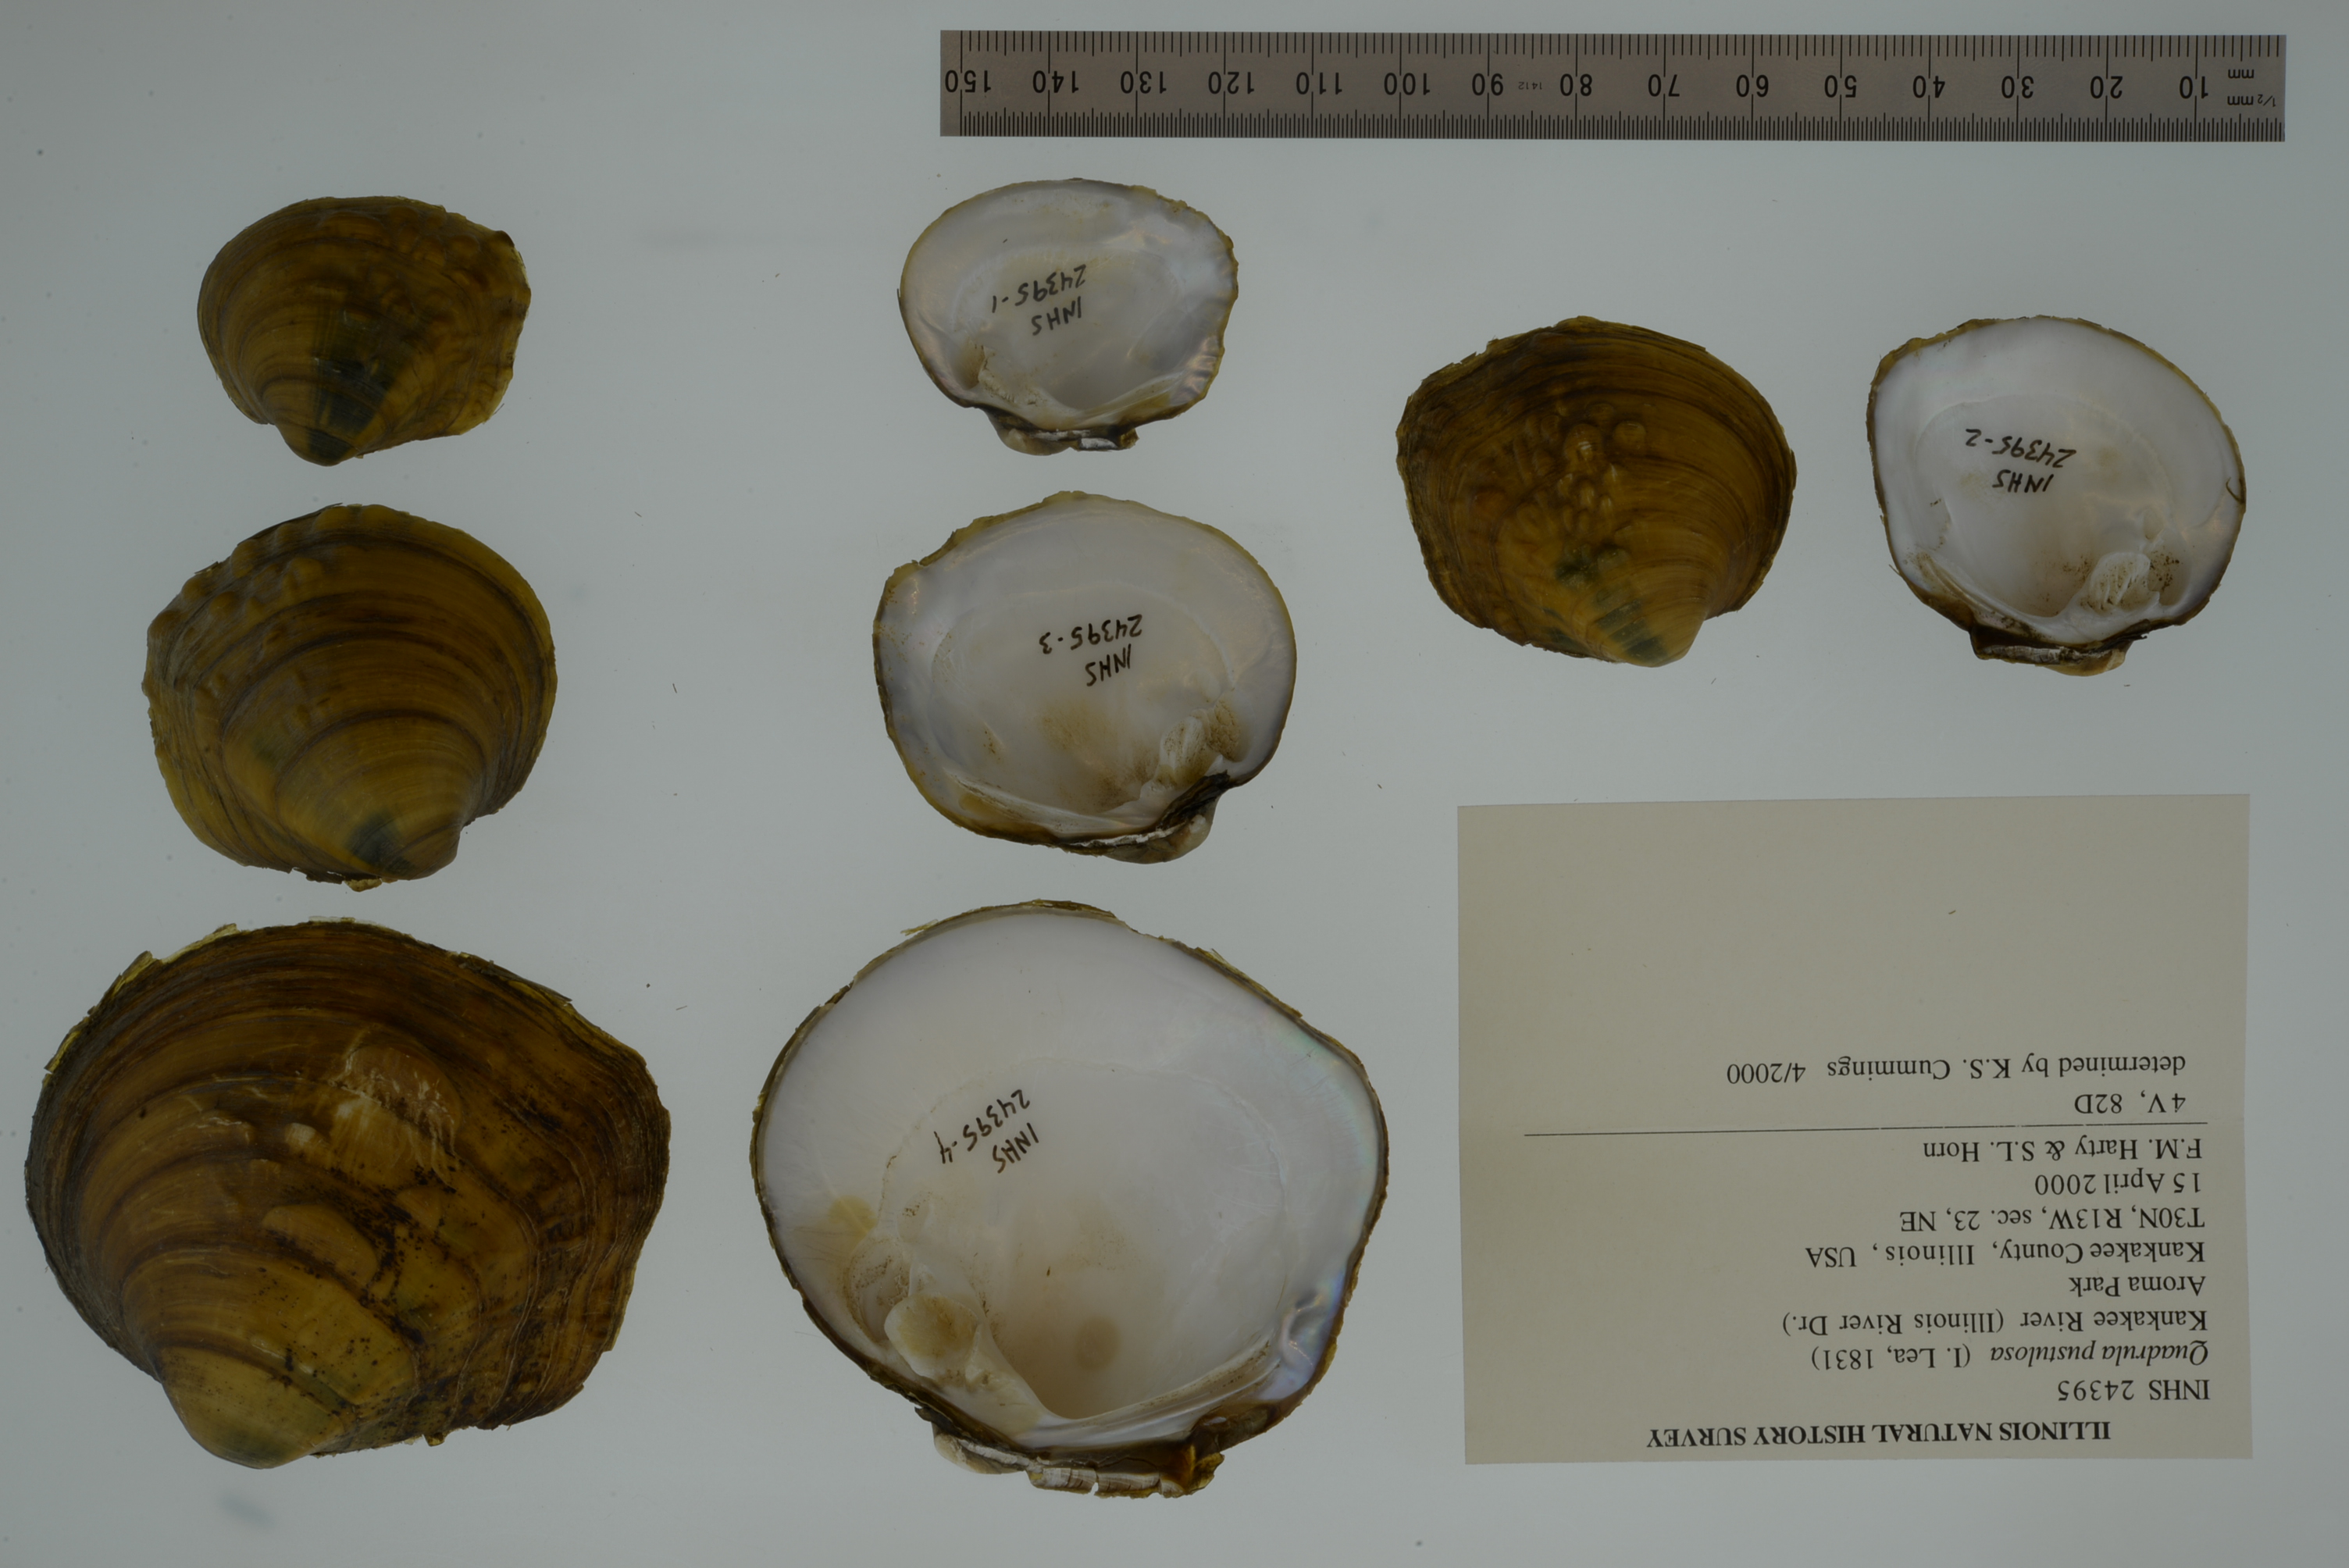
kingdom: Animalia
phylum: Mollusca
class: Bivalvia
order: Unionida
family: Unionidae
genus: Cyclonaias
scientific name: Cyclonaias pustulosa
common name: Pimpleback
